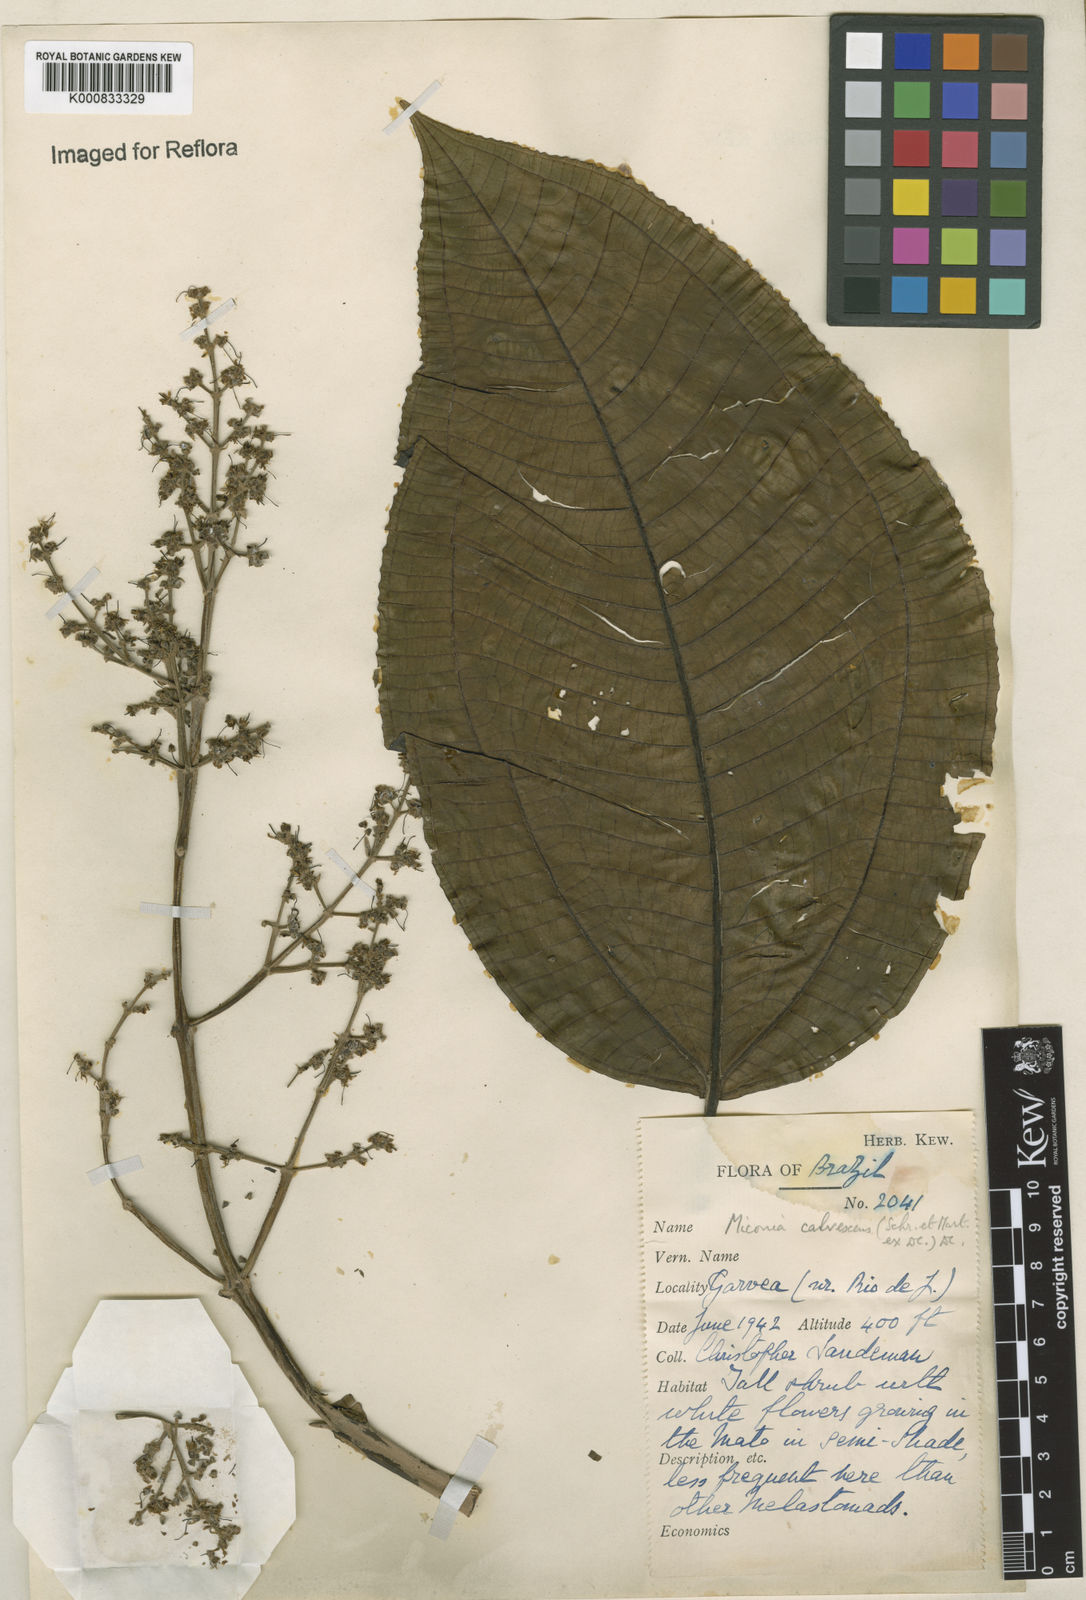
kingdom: Plantae
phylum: Tracheophyta
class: Magnoliopsida
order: Myrtales
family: Melastomataceae
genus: Miconia
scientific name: Miconia calvescens
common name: Purple plague
